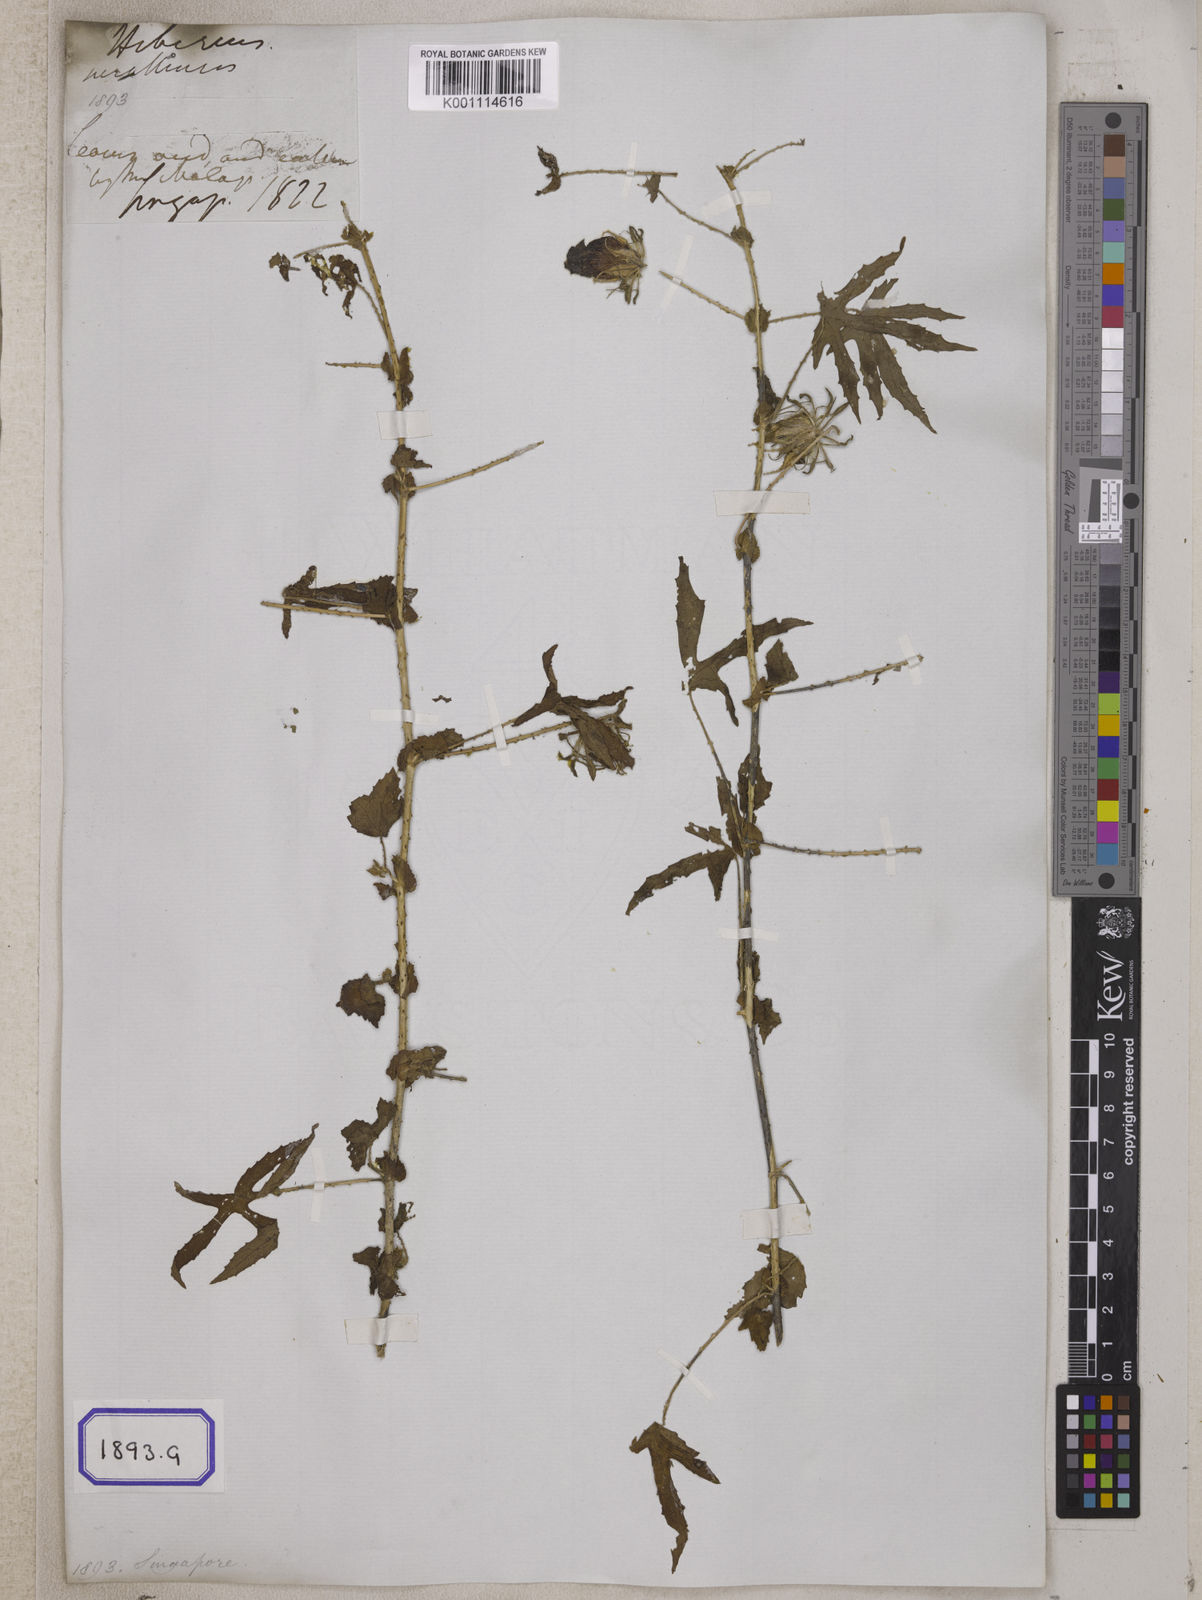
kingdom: Plantae
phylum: Tracheophyta
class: Magnoliopsida
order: Malvales
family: Malvaceae
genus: Hibiscus
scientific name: Hibiscus surattensis
